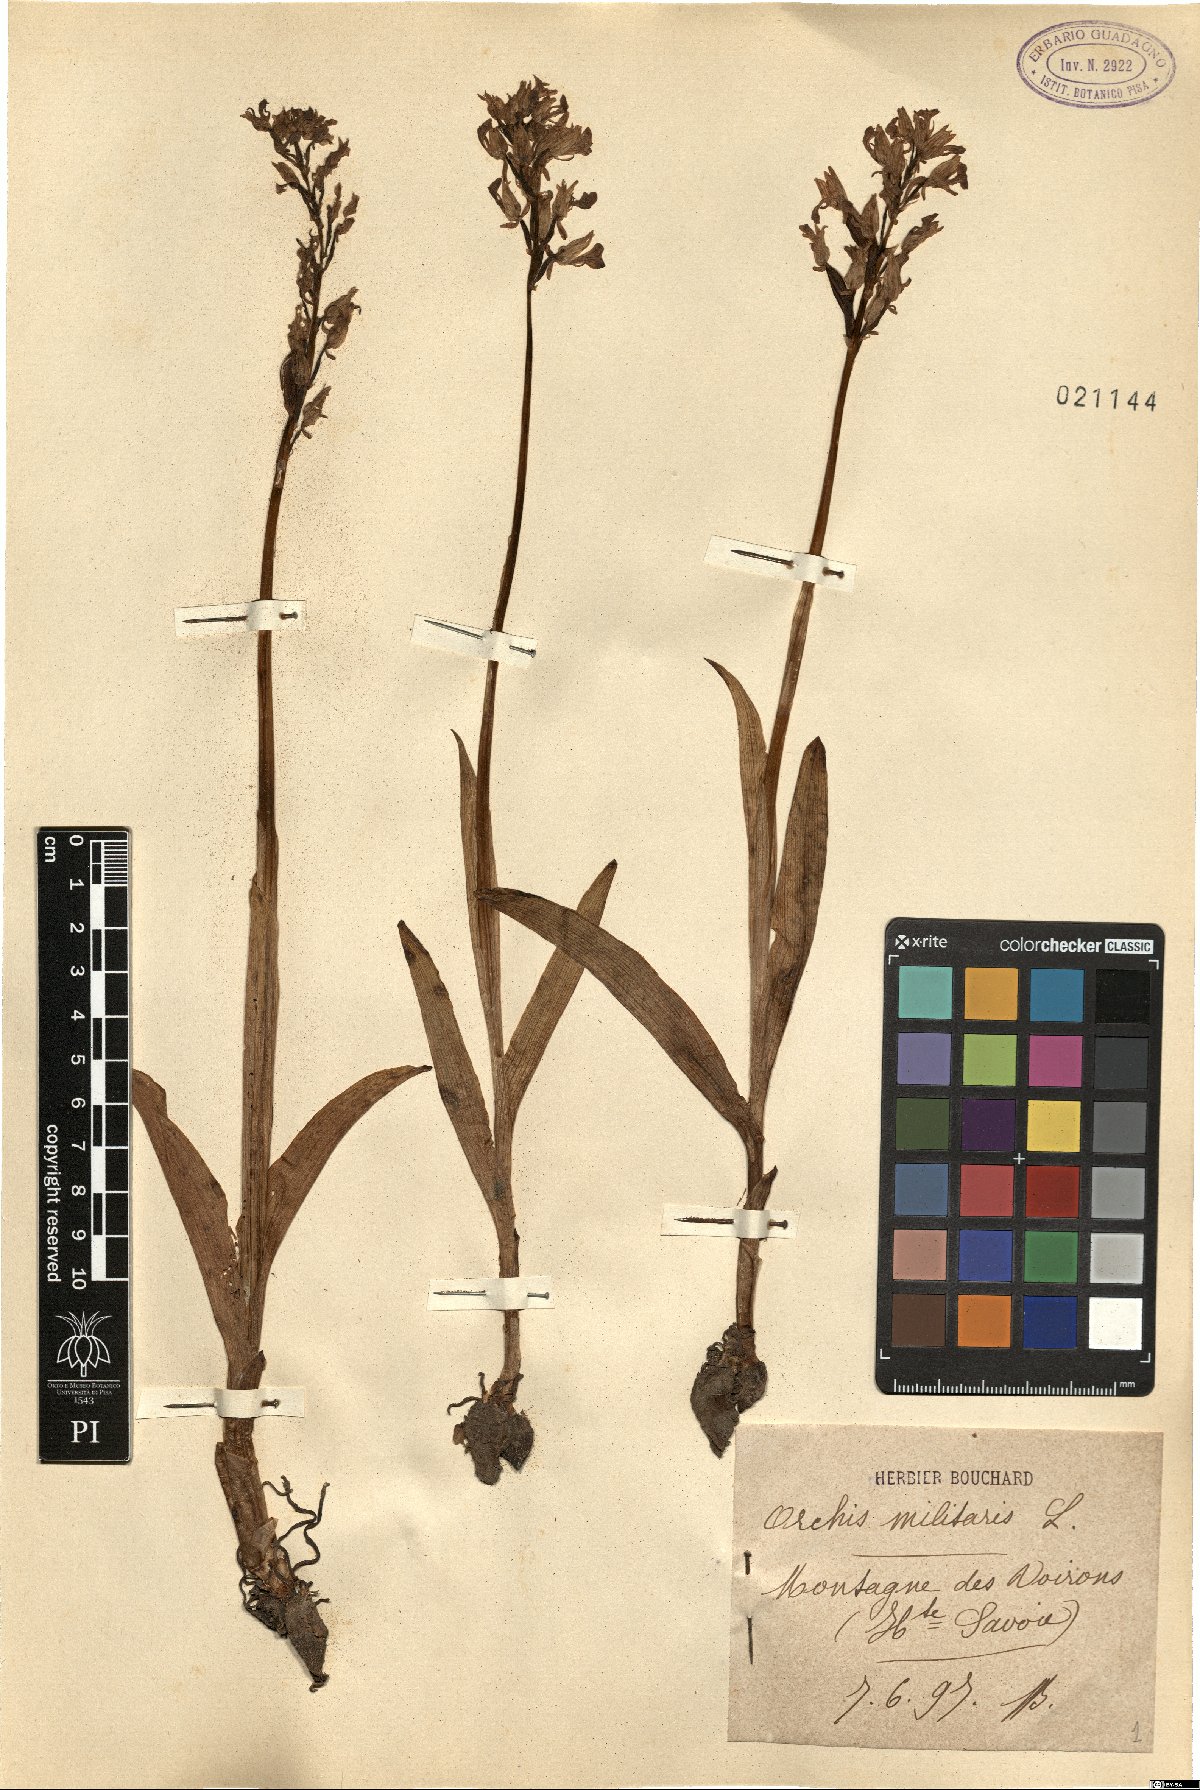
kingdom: Plantae
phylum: Tracheophyta
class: Liliopsida
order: Asparagales
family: Orchidaceae
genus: Orchis
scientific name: Orchis militaris
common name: Military orchid
